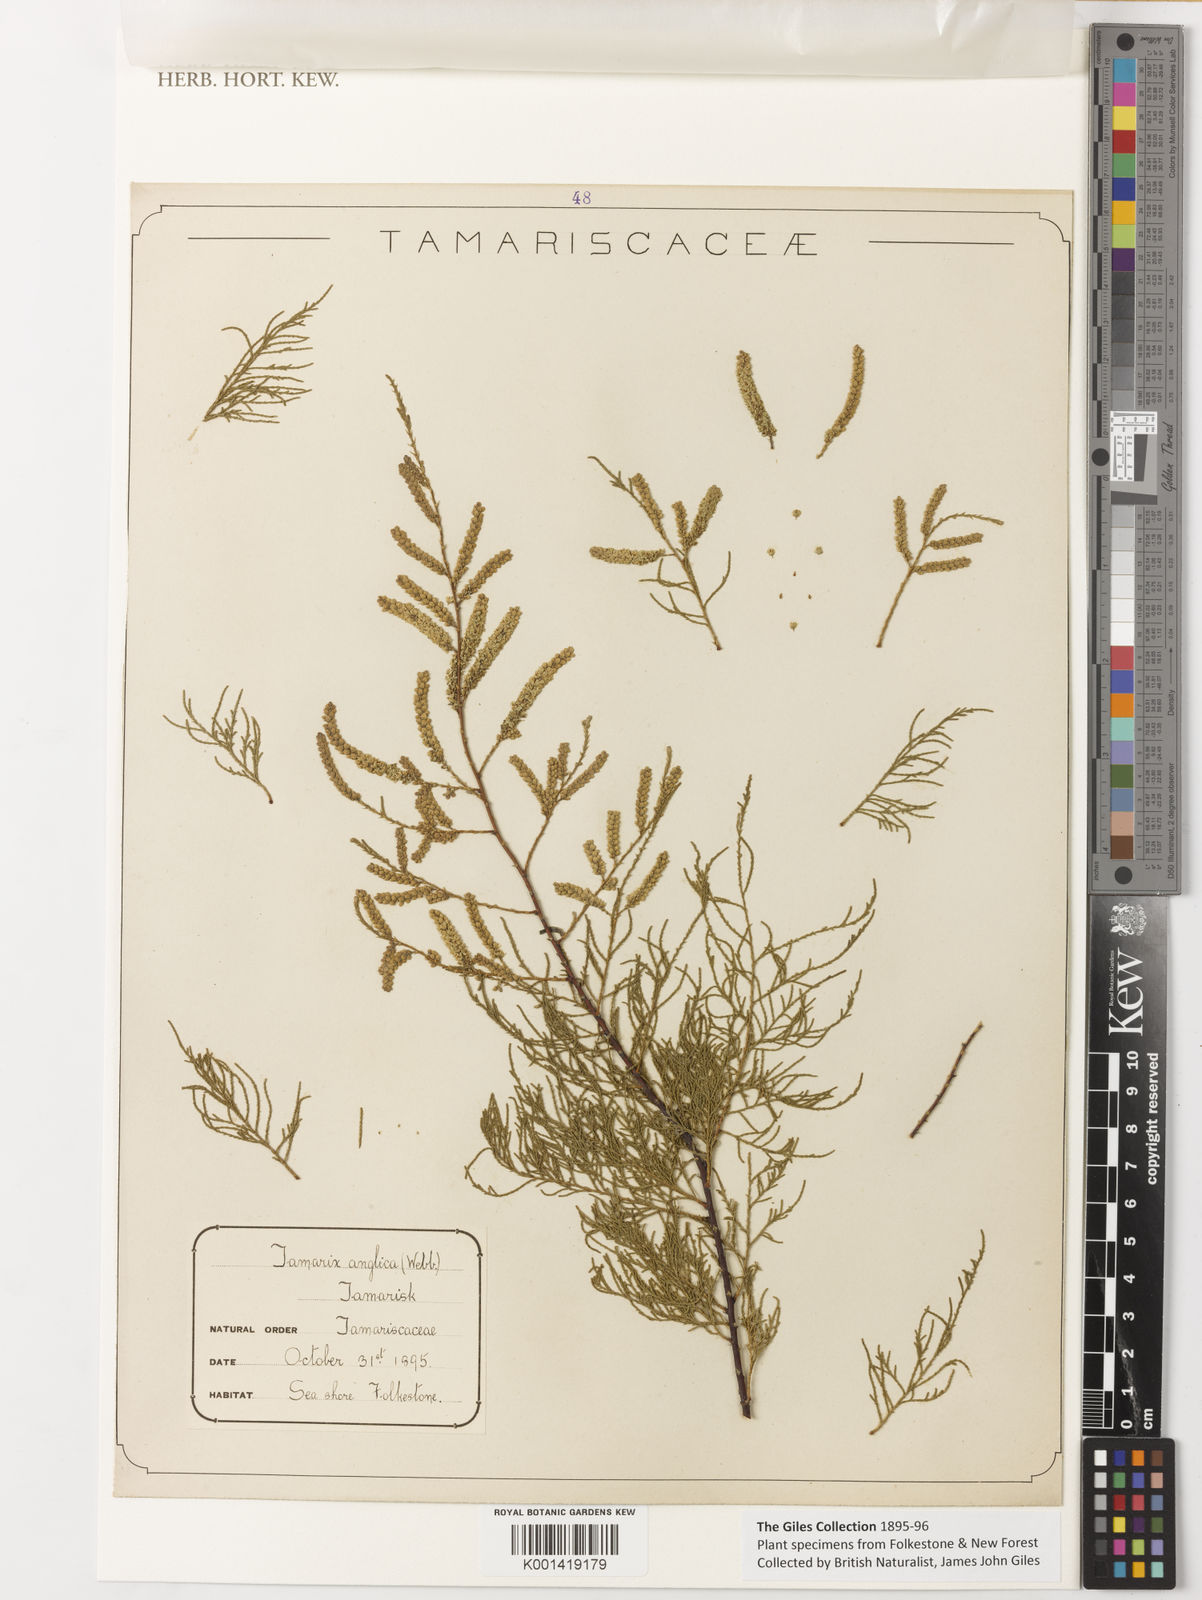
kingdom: Plantae
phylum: Tracheophyta
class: Magnoliopsida
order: Caryophyllales
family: Tamaricaceae
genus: Tamarix
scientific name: Tamarix gallica
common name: Tamarisk
